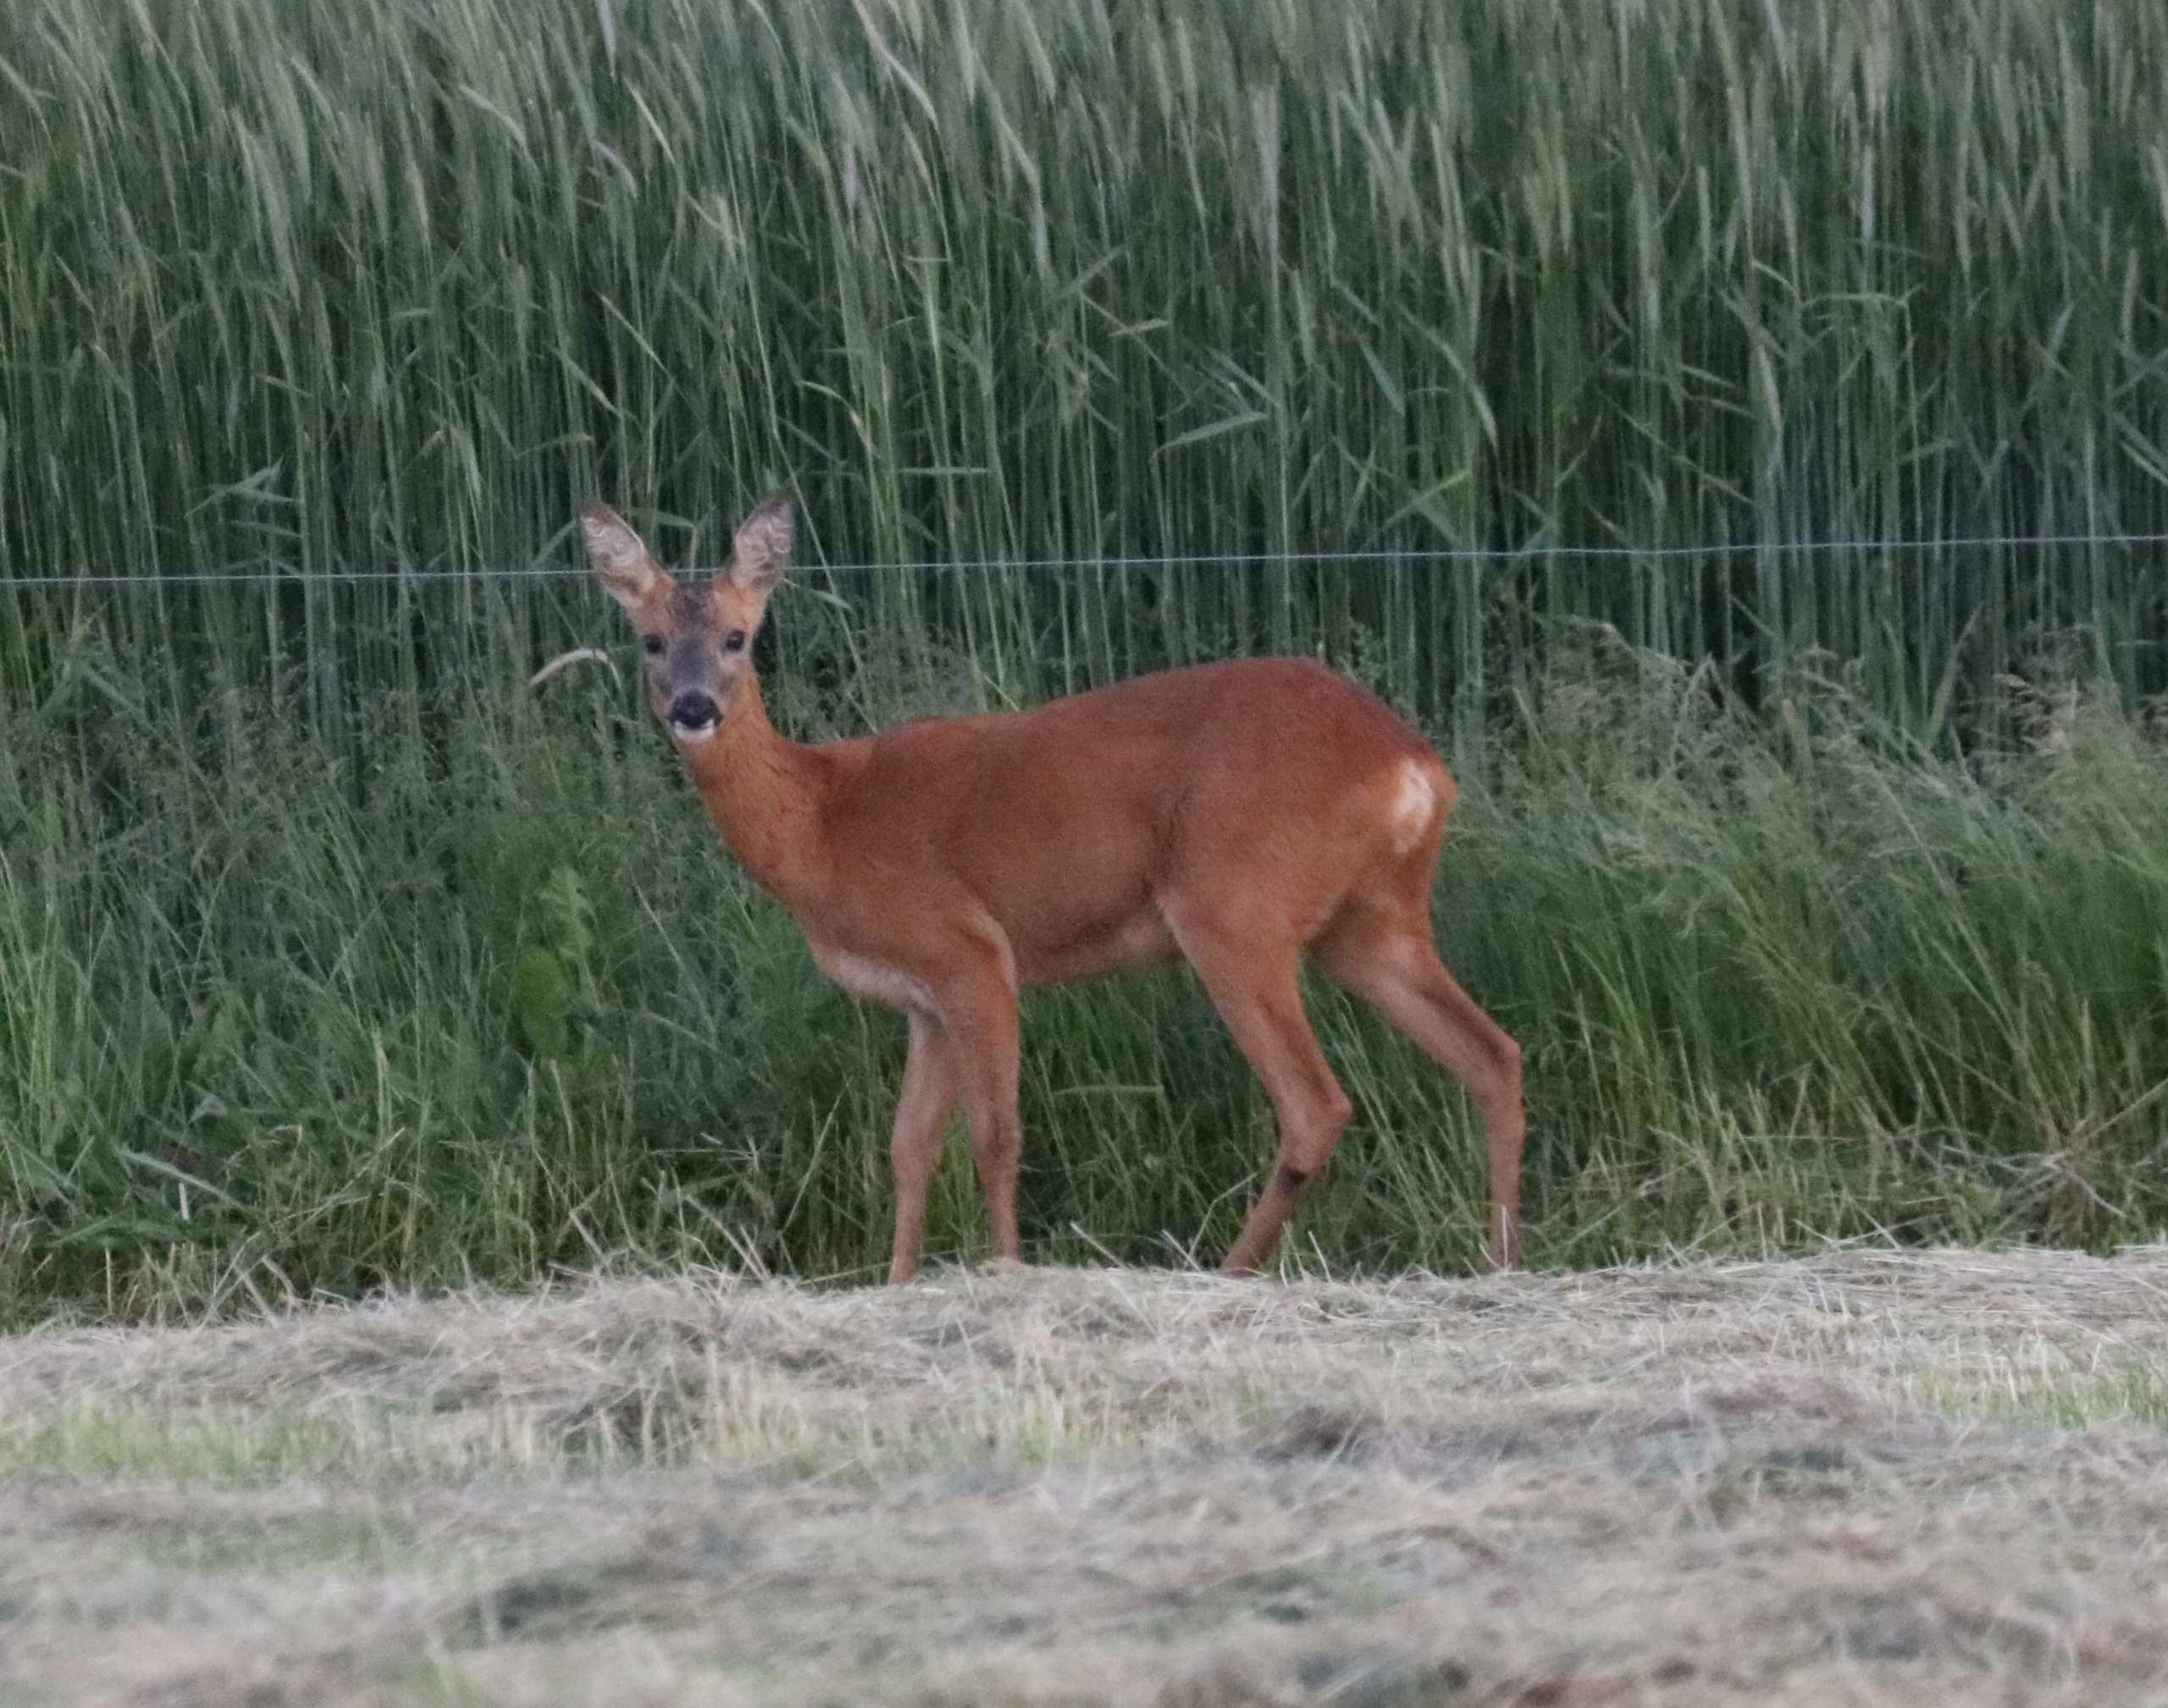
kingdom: Animalia
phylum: Chordata
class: Mammalia
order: Artiodactyla
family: Cervidae
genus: Capreolus
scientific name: Capreolus capreolus
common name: Rådyr
